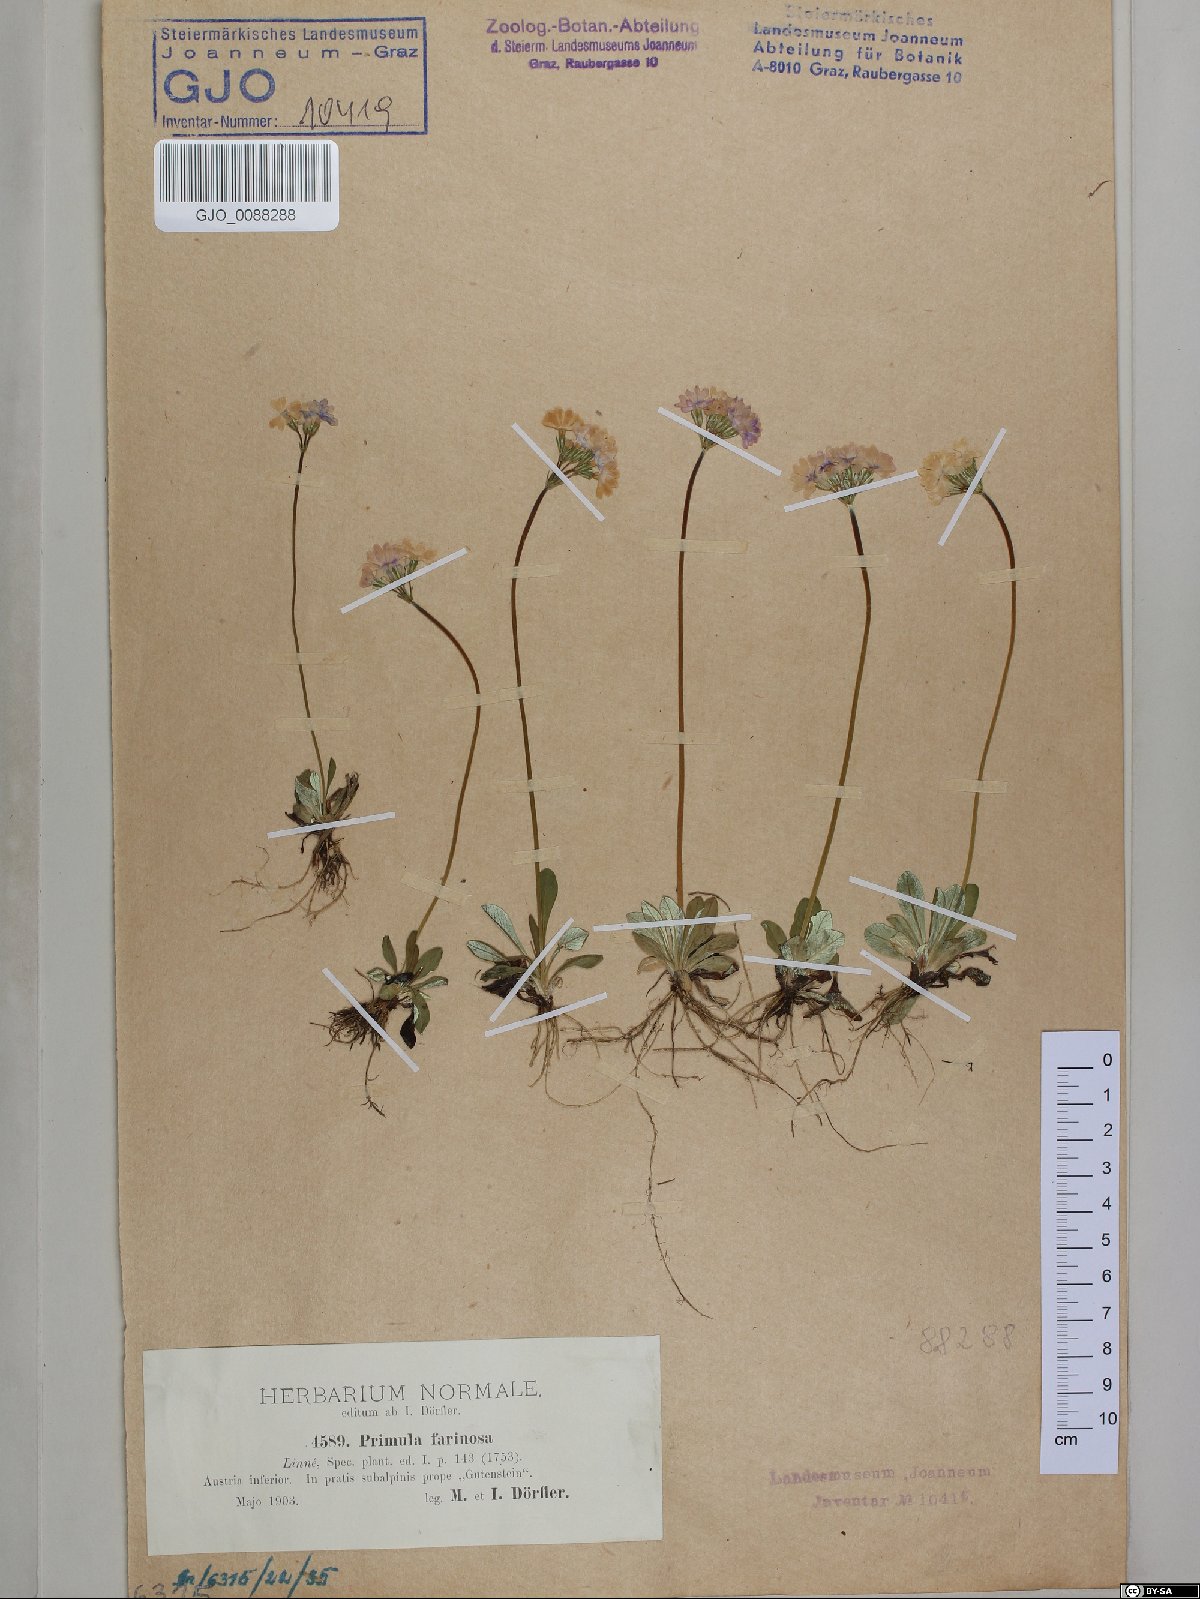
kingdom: Plantae
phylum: Tracheophyta
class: Magnoliopsida
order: Ericales
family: Primulaceae
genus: Primula
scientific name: Primula farinosa
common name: Bird's-eye primrose
